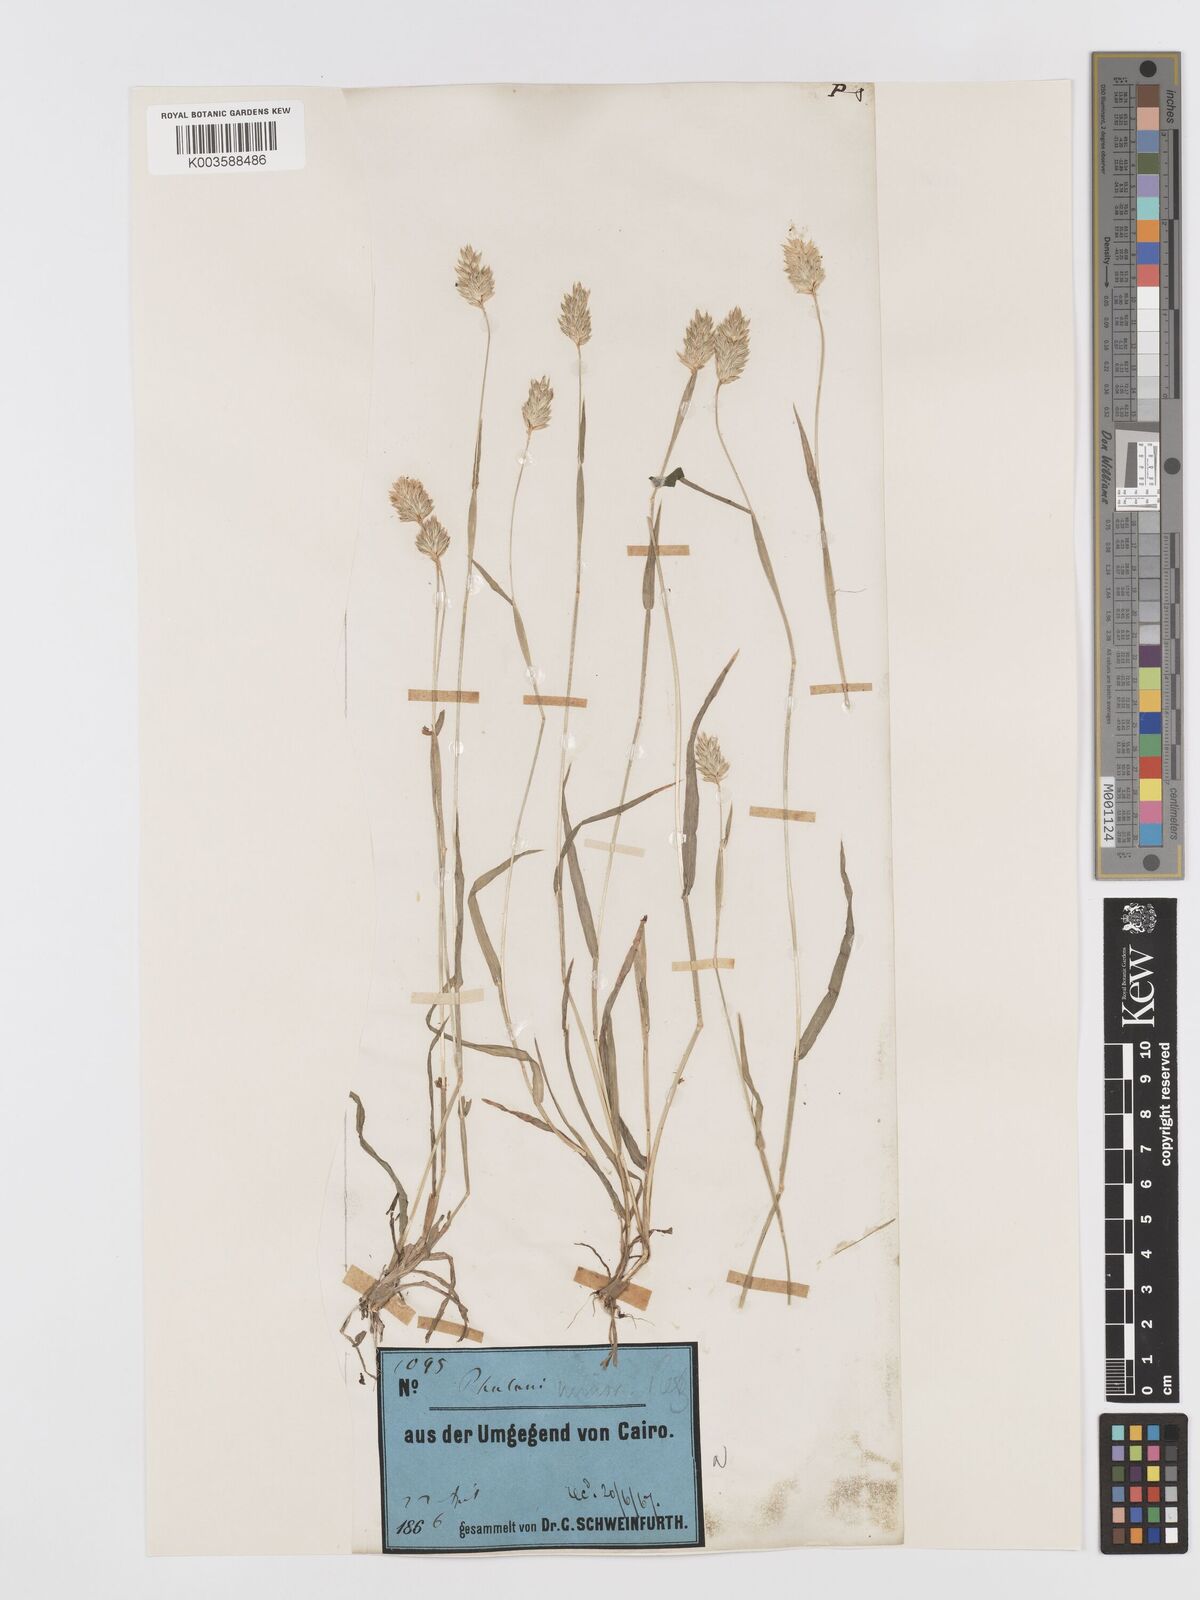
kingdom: Plantae
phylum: Tracheophyta
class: Liliopsida
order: Poales
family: Poaceae
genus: Phalaris
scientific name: Phalaris minor
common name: Littleseed canarygrass
